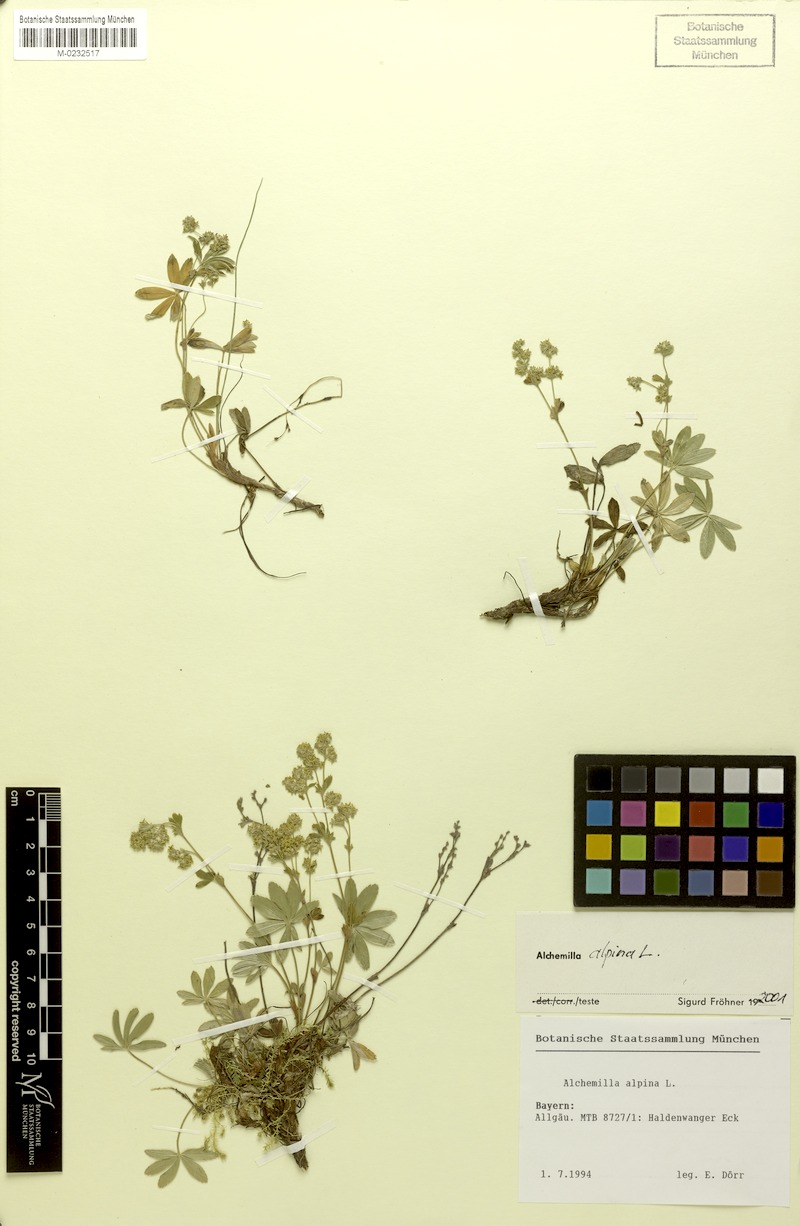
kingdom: Plantae
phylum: Tracheophyta
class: Magnoliopsida
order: Rosales
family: Rosaceae
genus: Alchemilla
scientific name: Alchemilla alpina
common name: Alpine lady's-mantle
